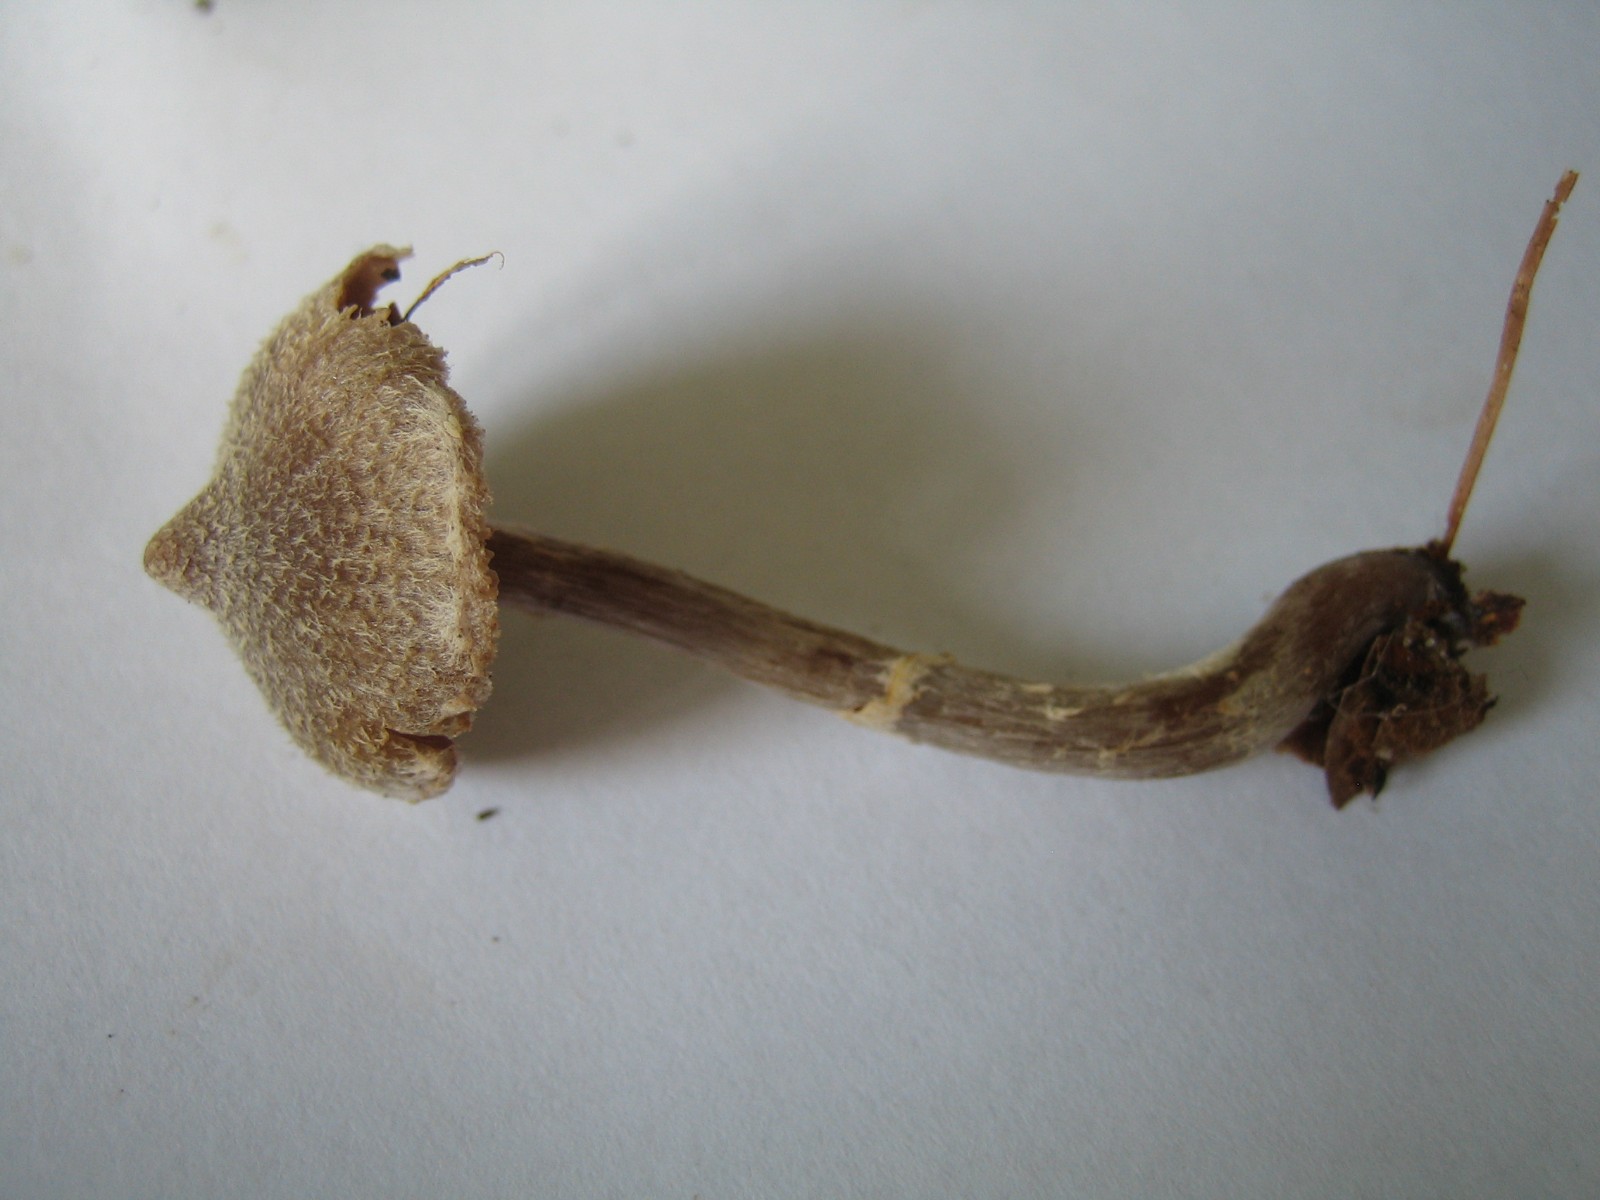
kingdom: Fungi
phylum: Basidiomycota
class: Agaricomycetes
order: Agaricales
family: Cortinariaceae
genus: Cortinarius
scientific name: Cortinarius
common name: pelargonie-slørhat
